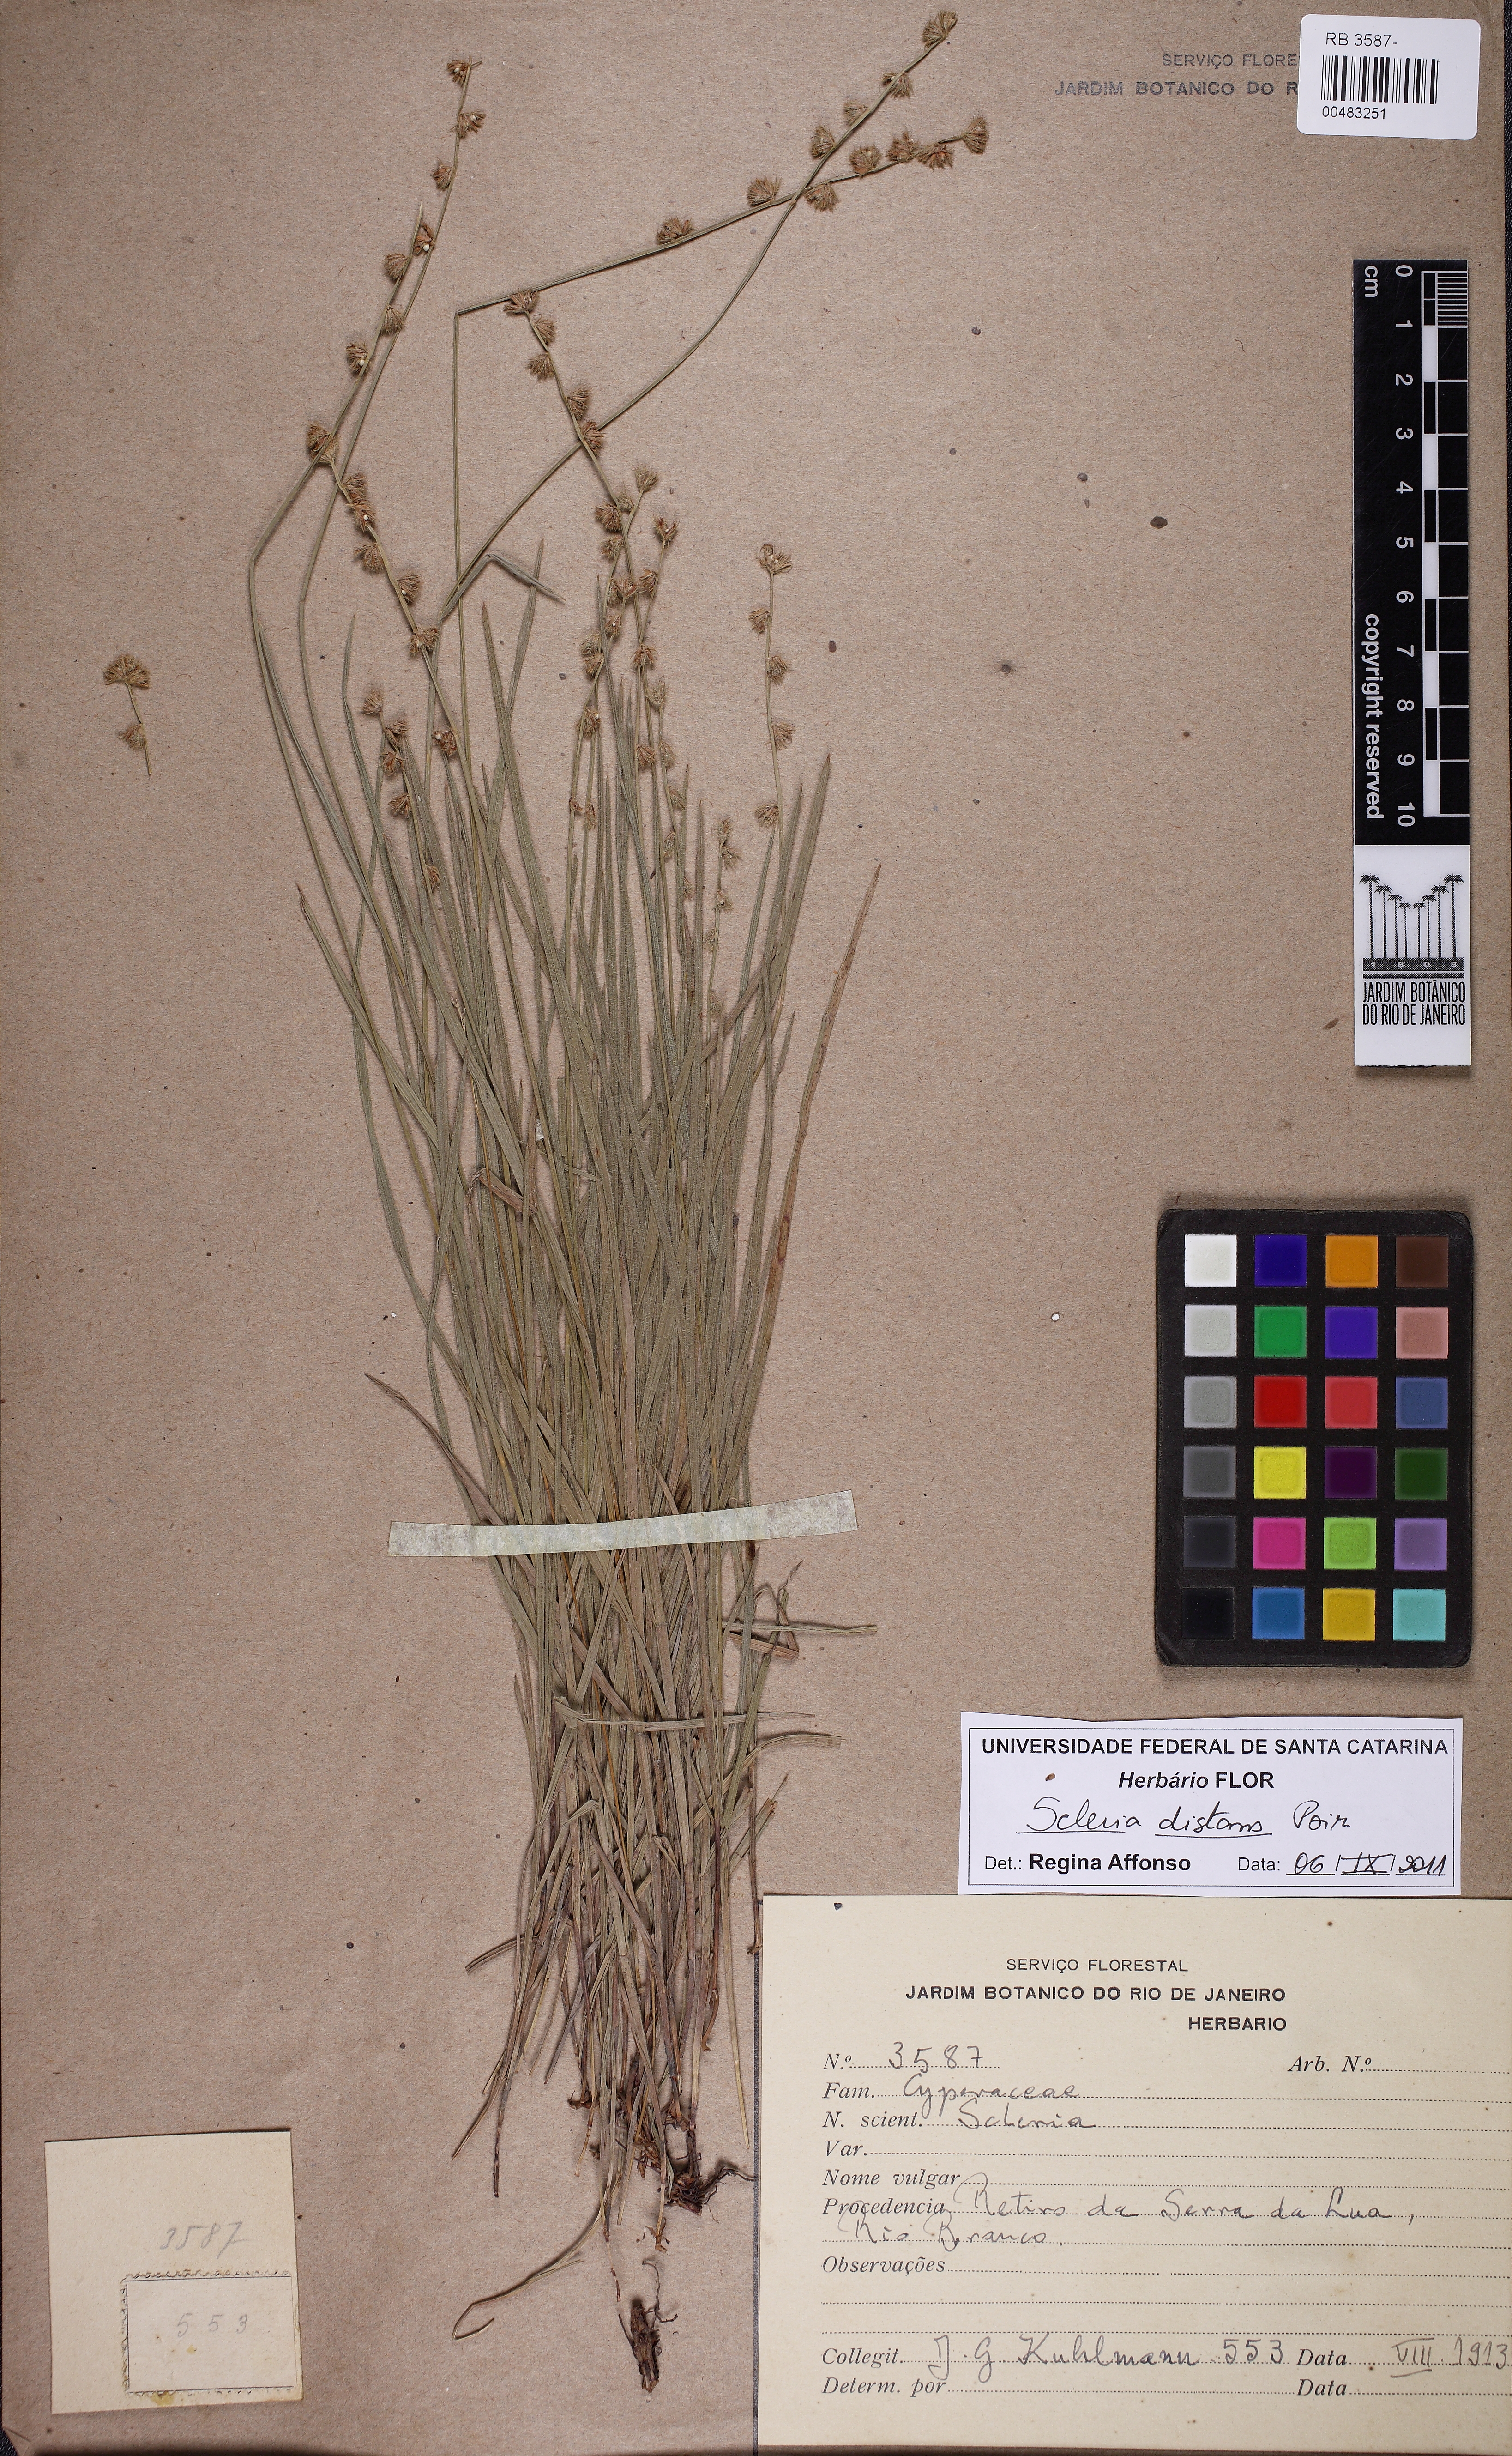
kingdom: Plantae
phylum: Tracheophyta
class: Liliopsida
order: Poales
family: Cyperaceae
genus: Scleria
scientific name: Scleria distans
